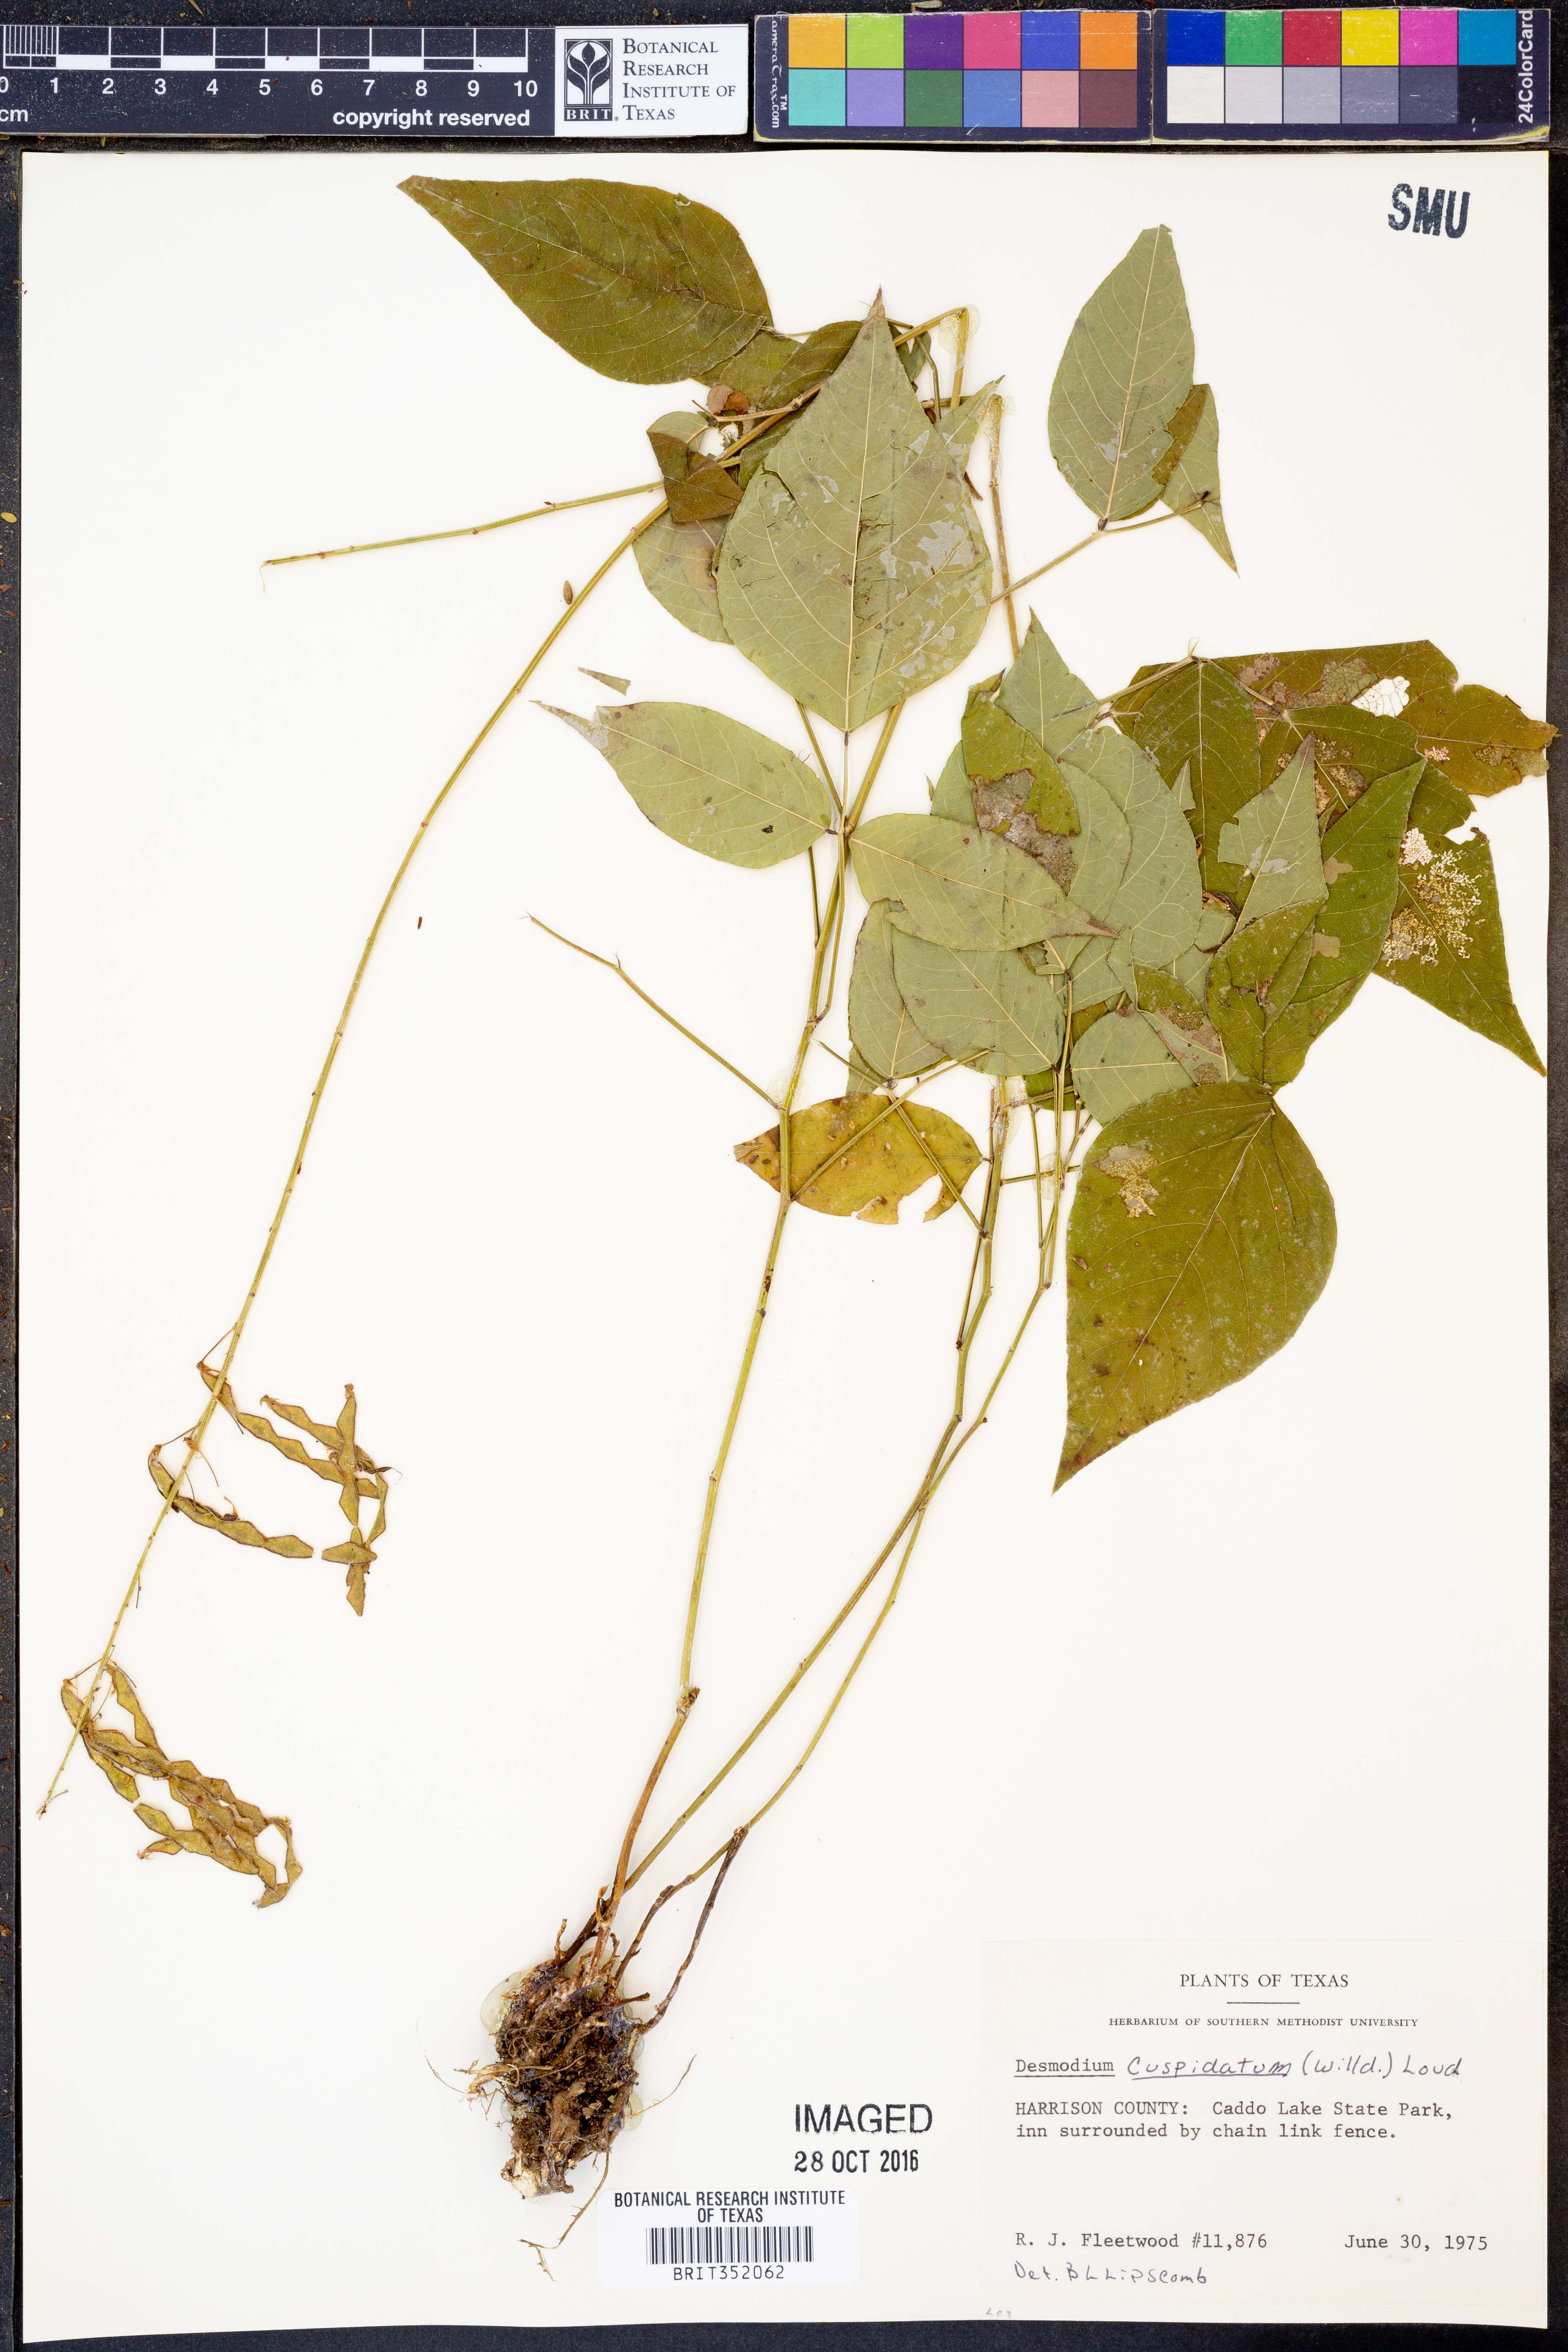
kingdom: Plantae
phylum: Tracheophyta
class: Magnoliopsida
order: Fabales
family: Fabaceae
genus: Desmodium
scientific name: Desmodium cuspidatum
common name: Big tick trefoil
